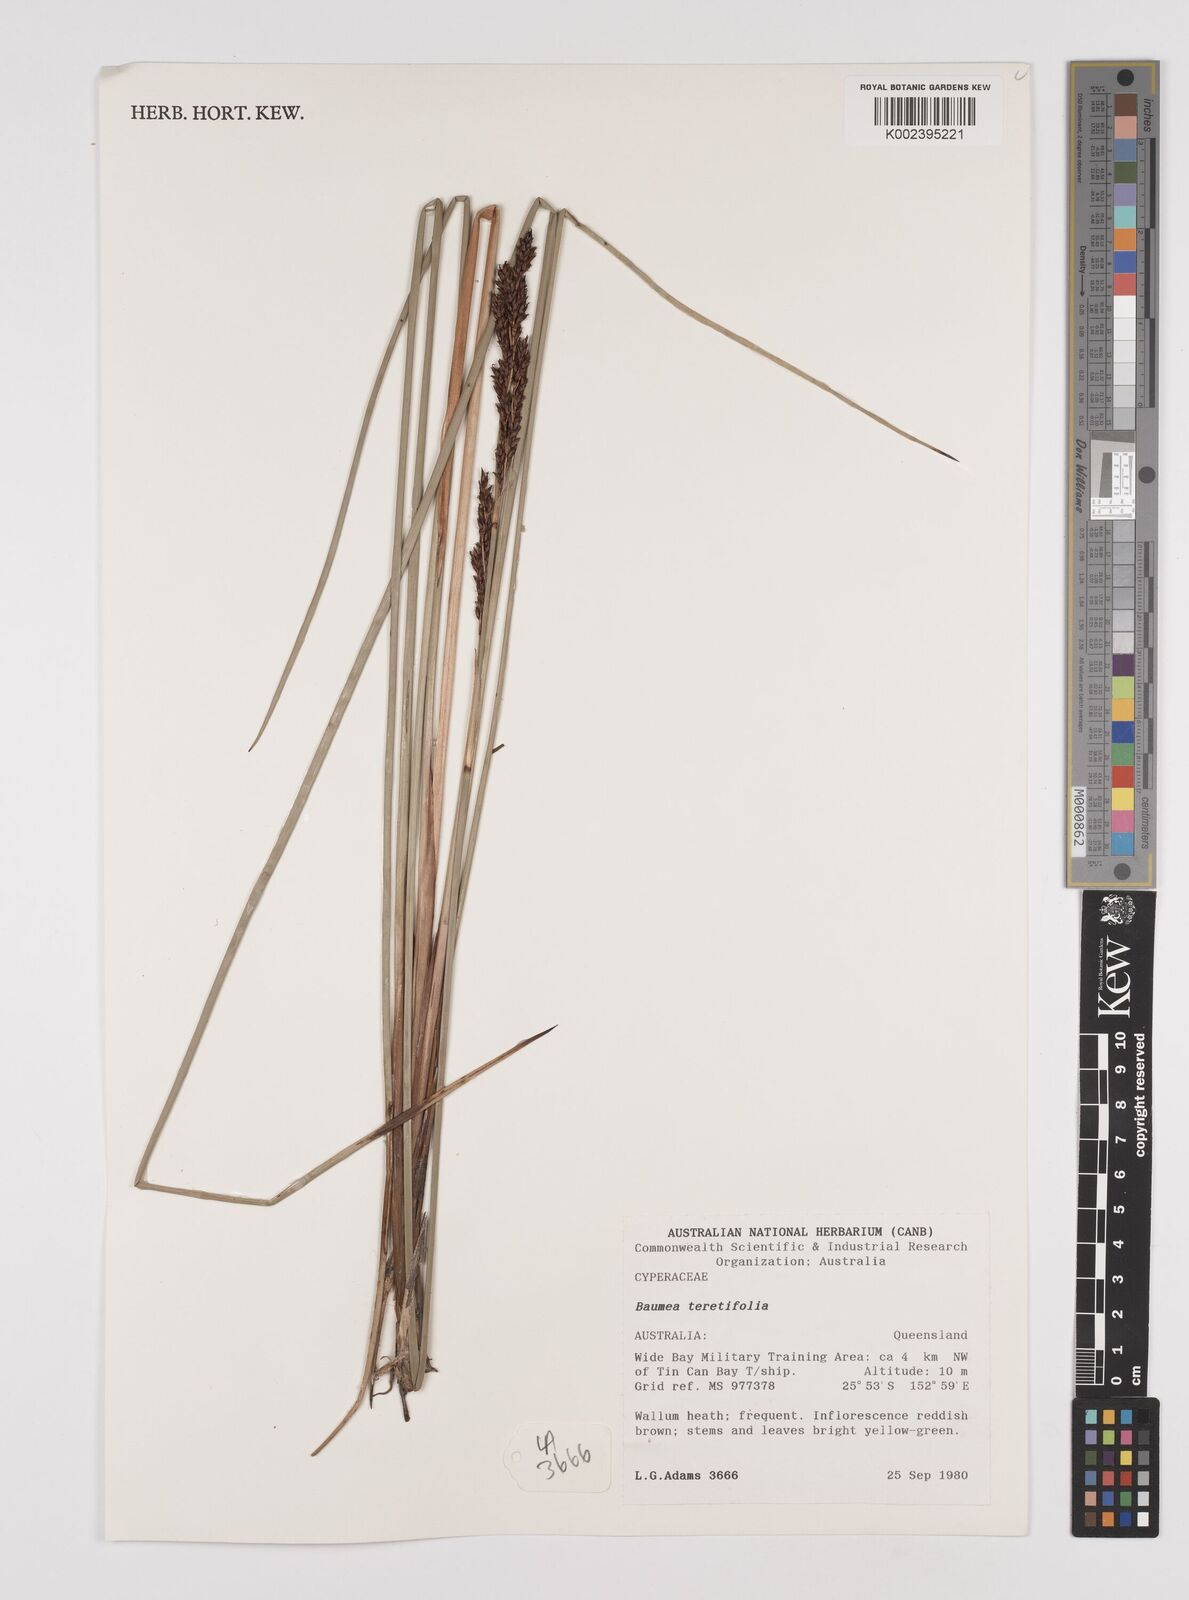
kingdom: Plantae
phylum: Tracheophyta
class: Liliopsida
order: Poales
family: Cyperaceae
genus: Machaerina
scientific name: Machaerina teretifolia
